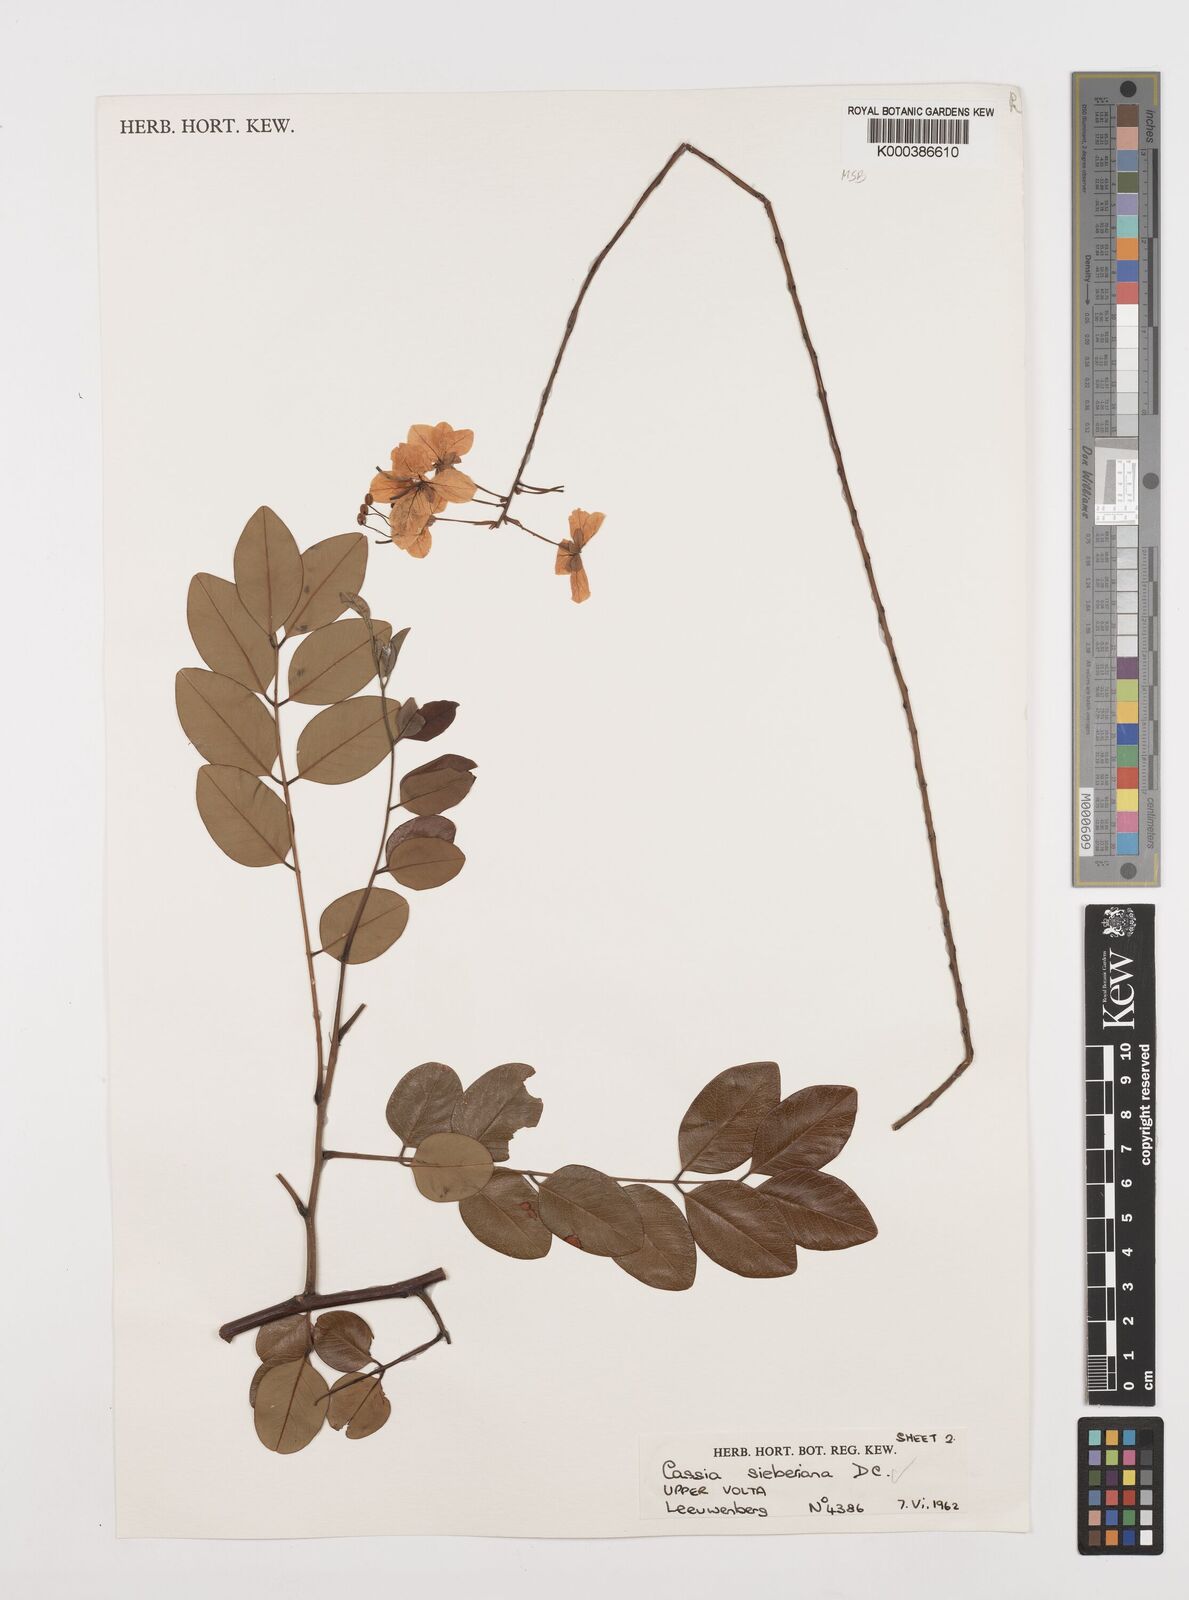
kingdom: Plantae
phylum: Tracheophyta
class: Magnoliopsida
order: Fabales
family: Fabaceae
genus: Cassia
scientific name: Cassia sieberiana
